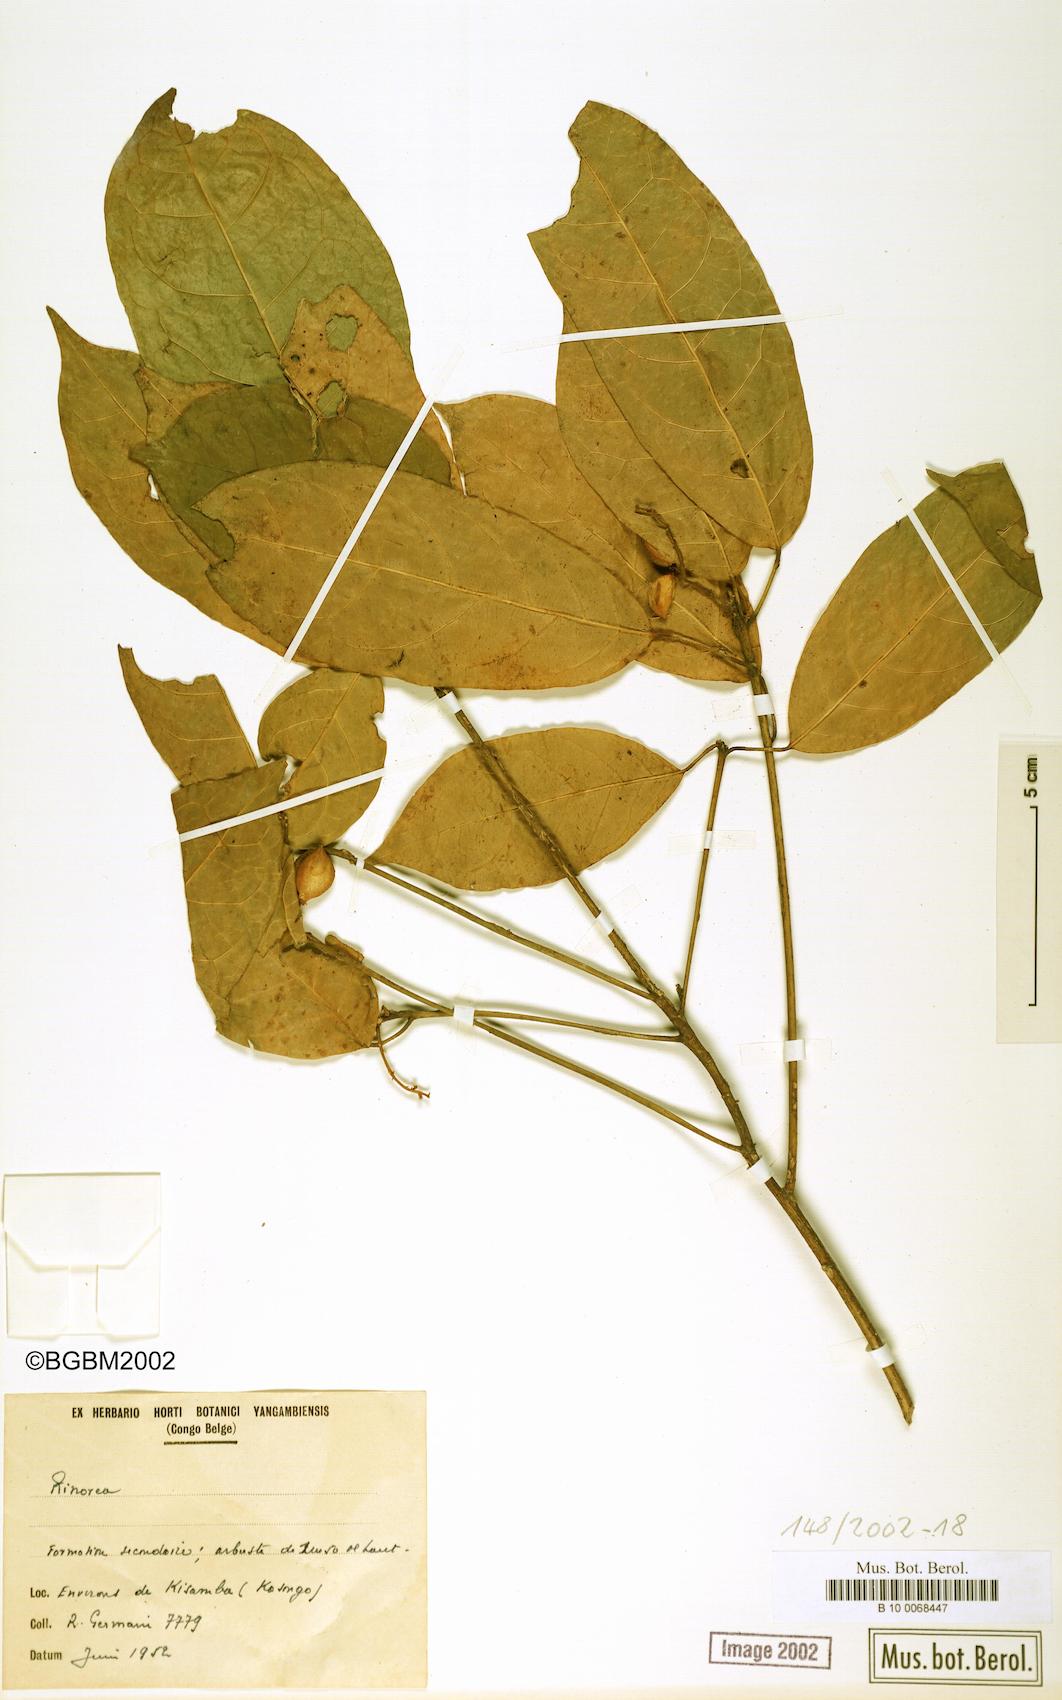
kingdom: Plantae
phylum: Tracheophyta
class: Magnoliopsida
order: Malpighiales
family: Violaceae
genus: Rinorea
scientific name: Rinorea
